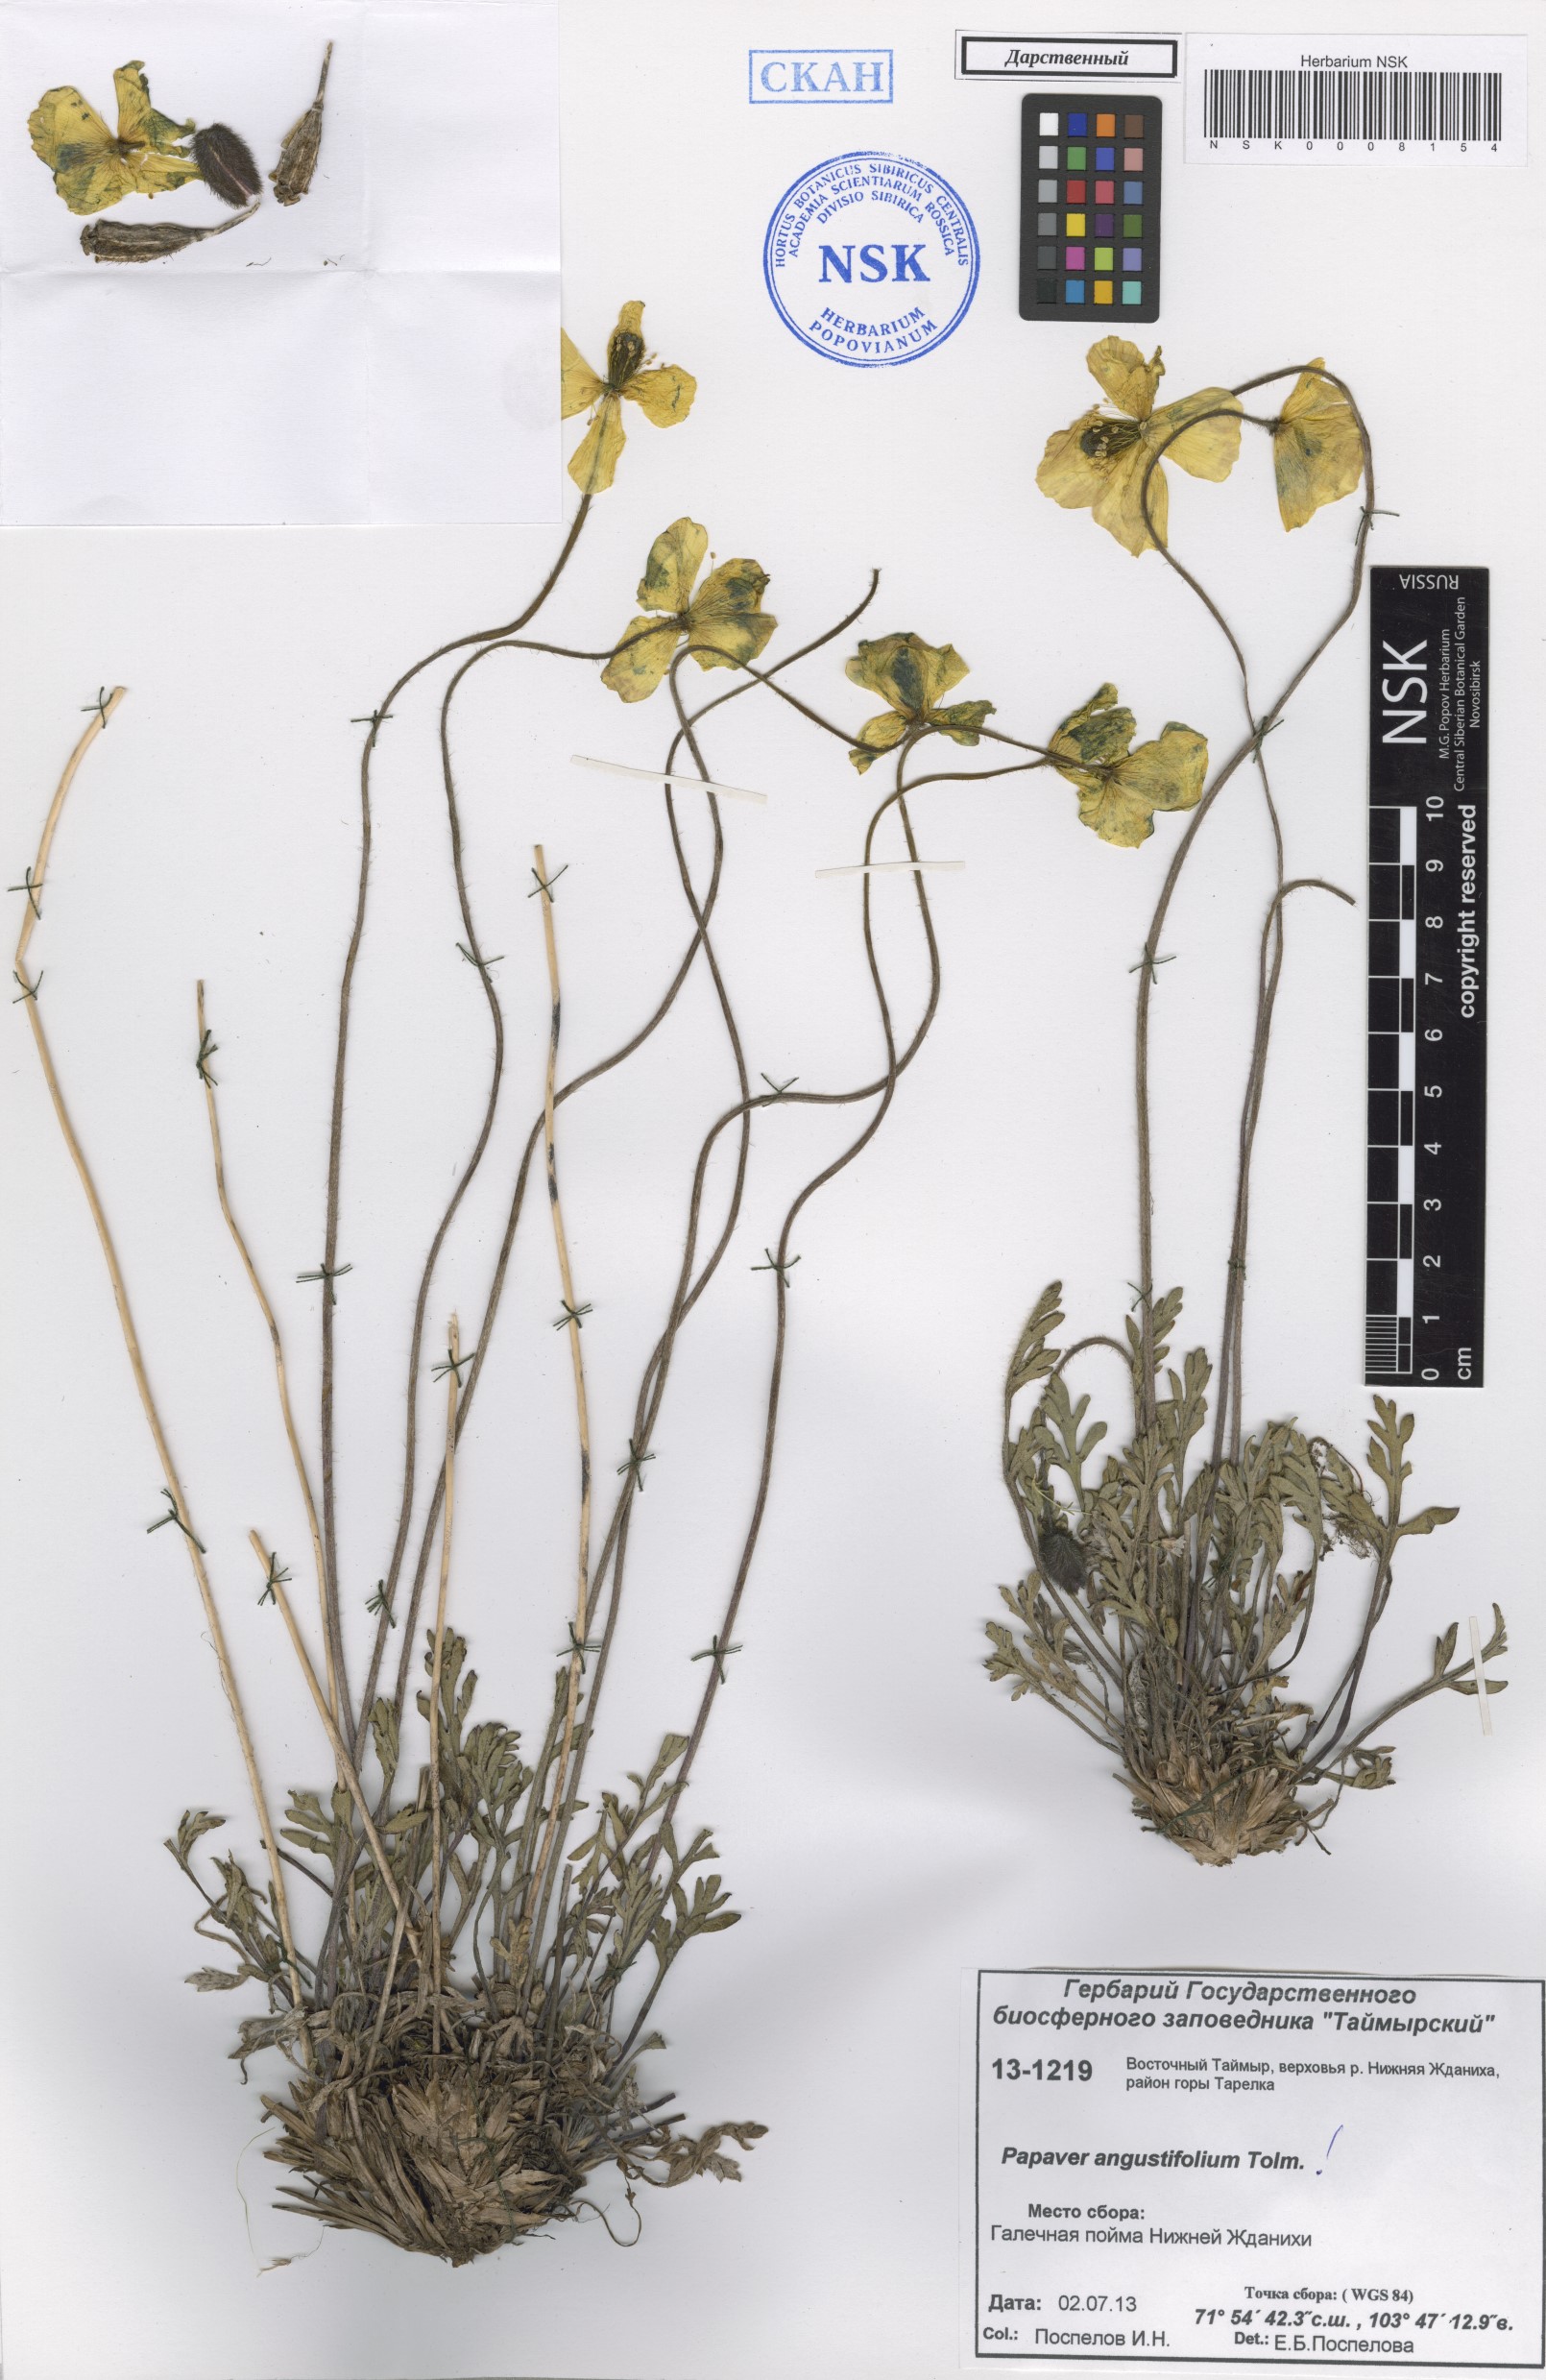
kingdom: Plantae
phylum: Tracheophyta
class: Magnoliopsida
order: Ranunculales
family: Papaveraceae
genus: Papaver
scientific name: Papaver angustifolium
